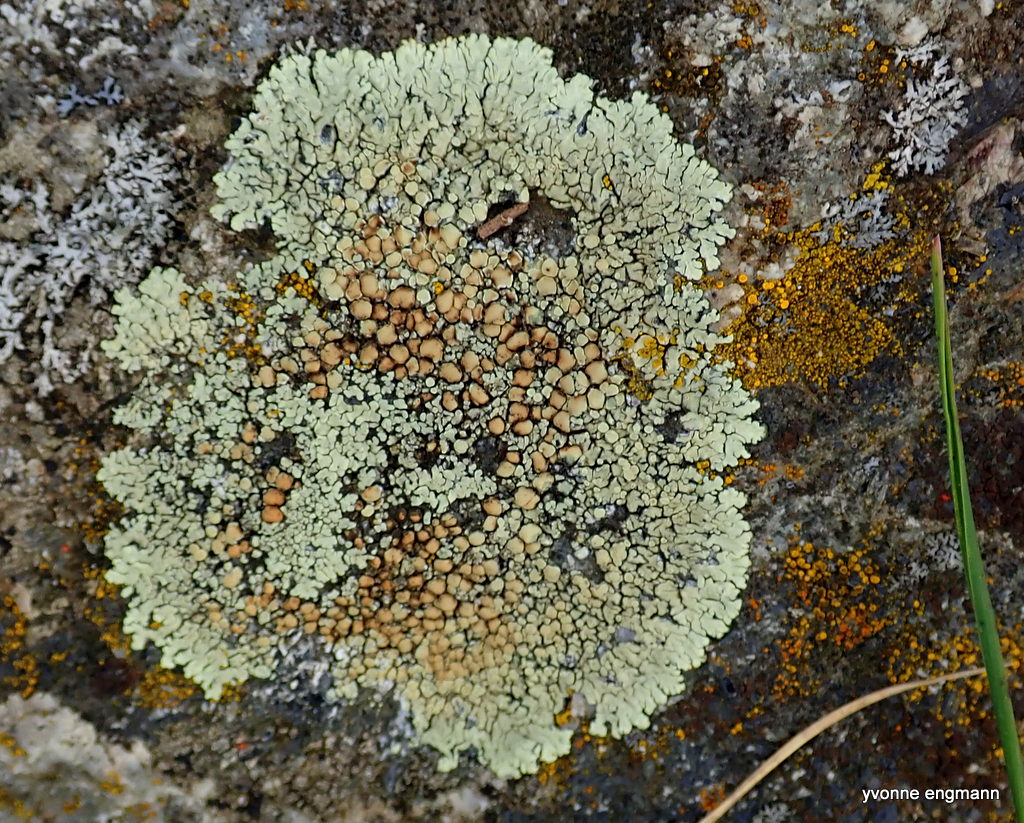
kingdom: Fungi
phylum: Ascomycota
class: Lecanoromycetes
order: Lecanorales
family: Lecanoraceae
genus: Protoparmeliopsis
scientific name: Protoparmeliopsis muralis
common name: randfliget kantskivelav
